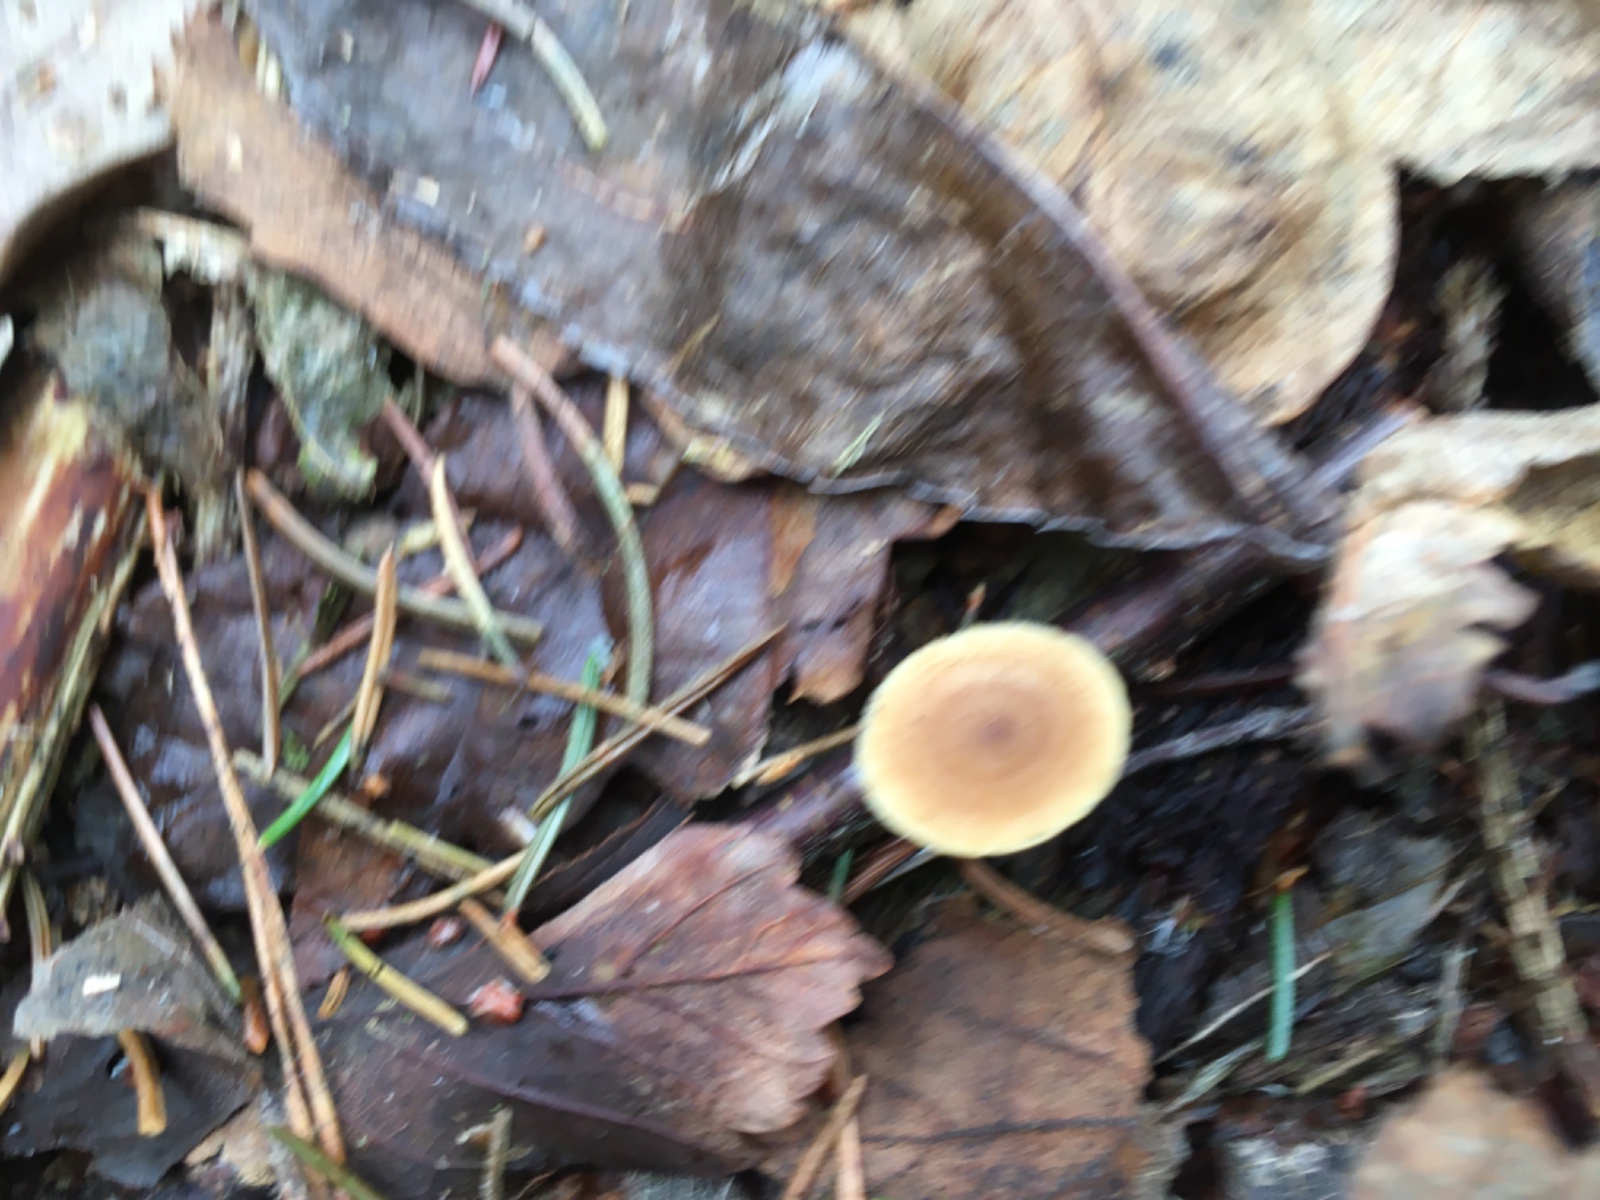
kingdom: Fungi
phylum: Basidiomycota
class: Agaricomycetes
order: Polyporales
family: Polyporaceae
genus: Lentinus
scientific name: Lentinus brumalis
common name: vinter-stilkporesvamp
